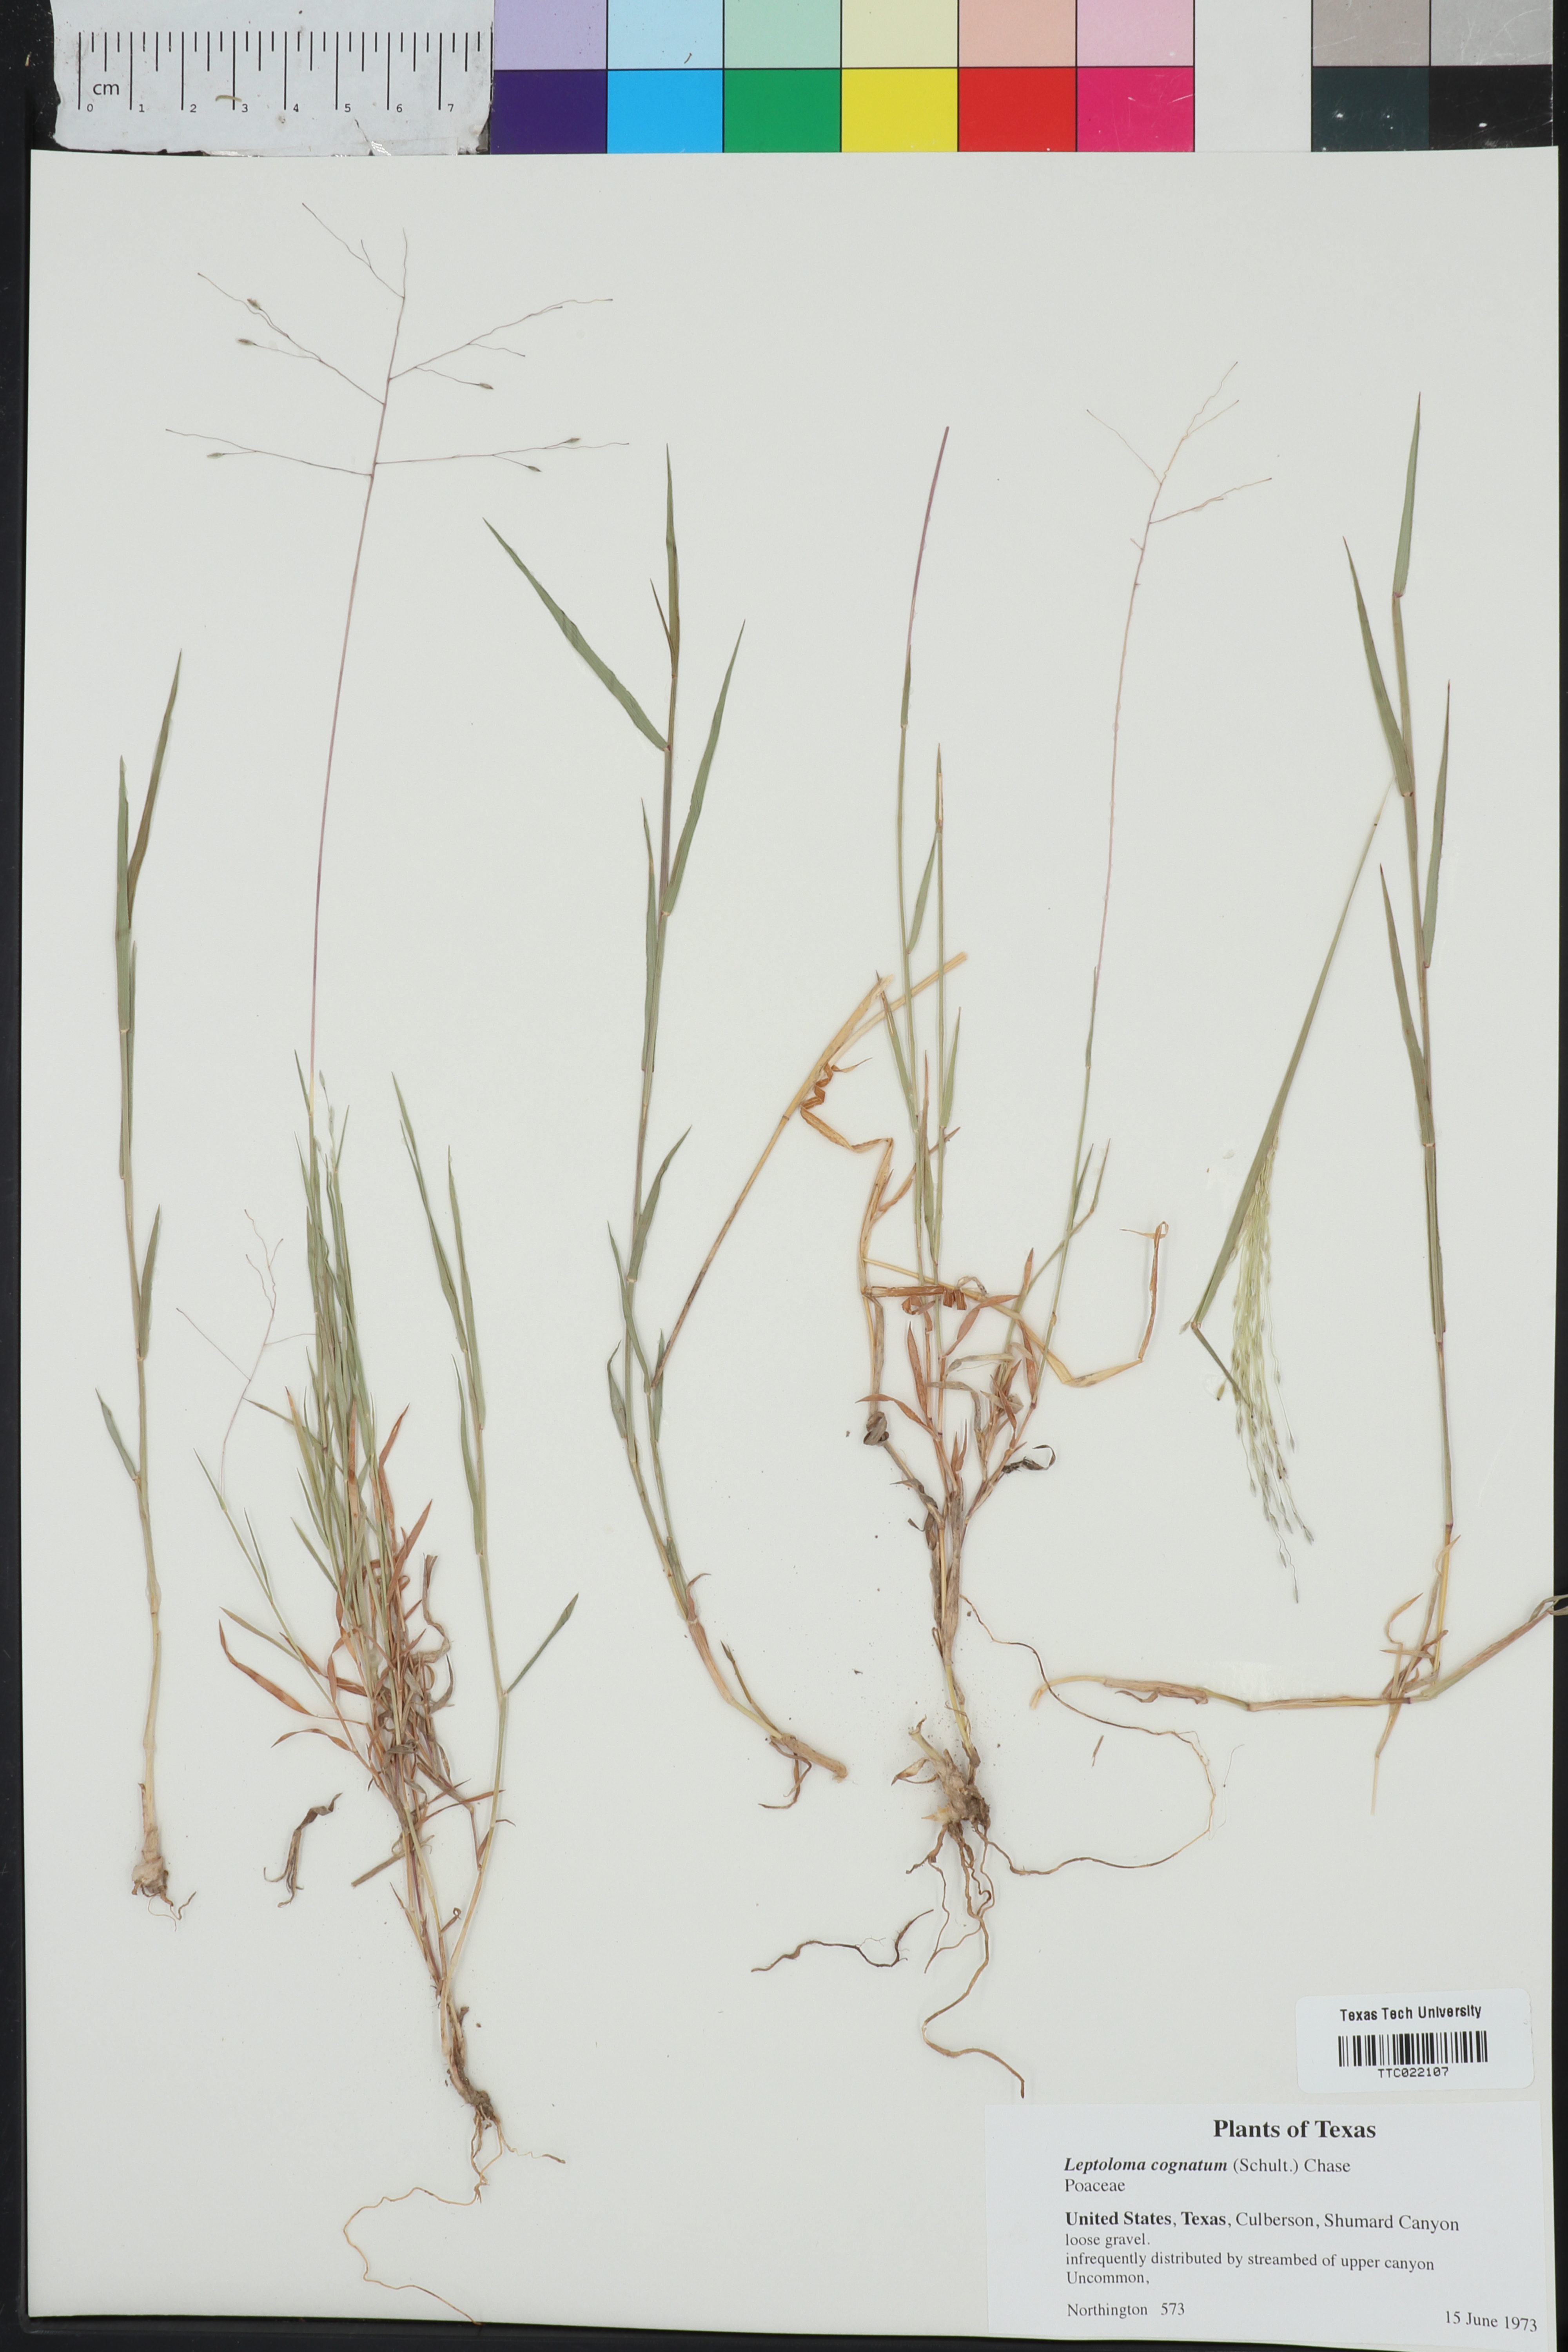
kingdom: Plantae
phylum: Tracheophyta
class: Liliopsida
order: Poales
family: Poaceae
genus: Digitaria
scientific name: Digitaria cognata
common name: Fall witchgrass
